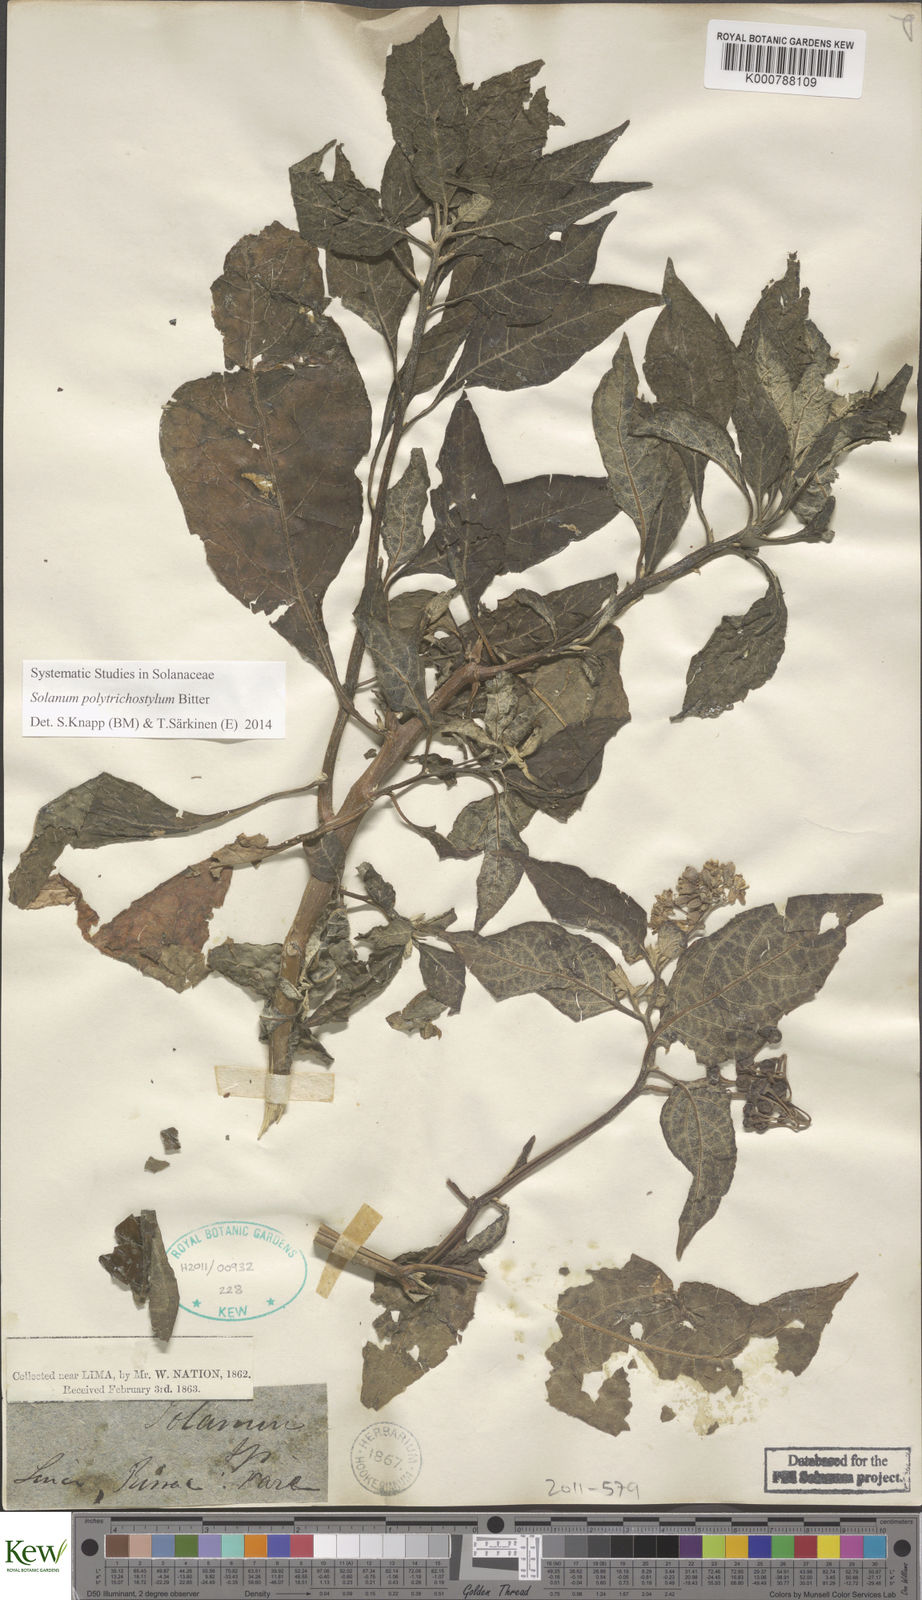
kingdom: Plantae
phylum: Tracheophyta
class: Magnoliopsida
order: Solanales
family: Solanaceae
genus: Solanum
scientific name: Solanum polytrichostylum
